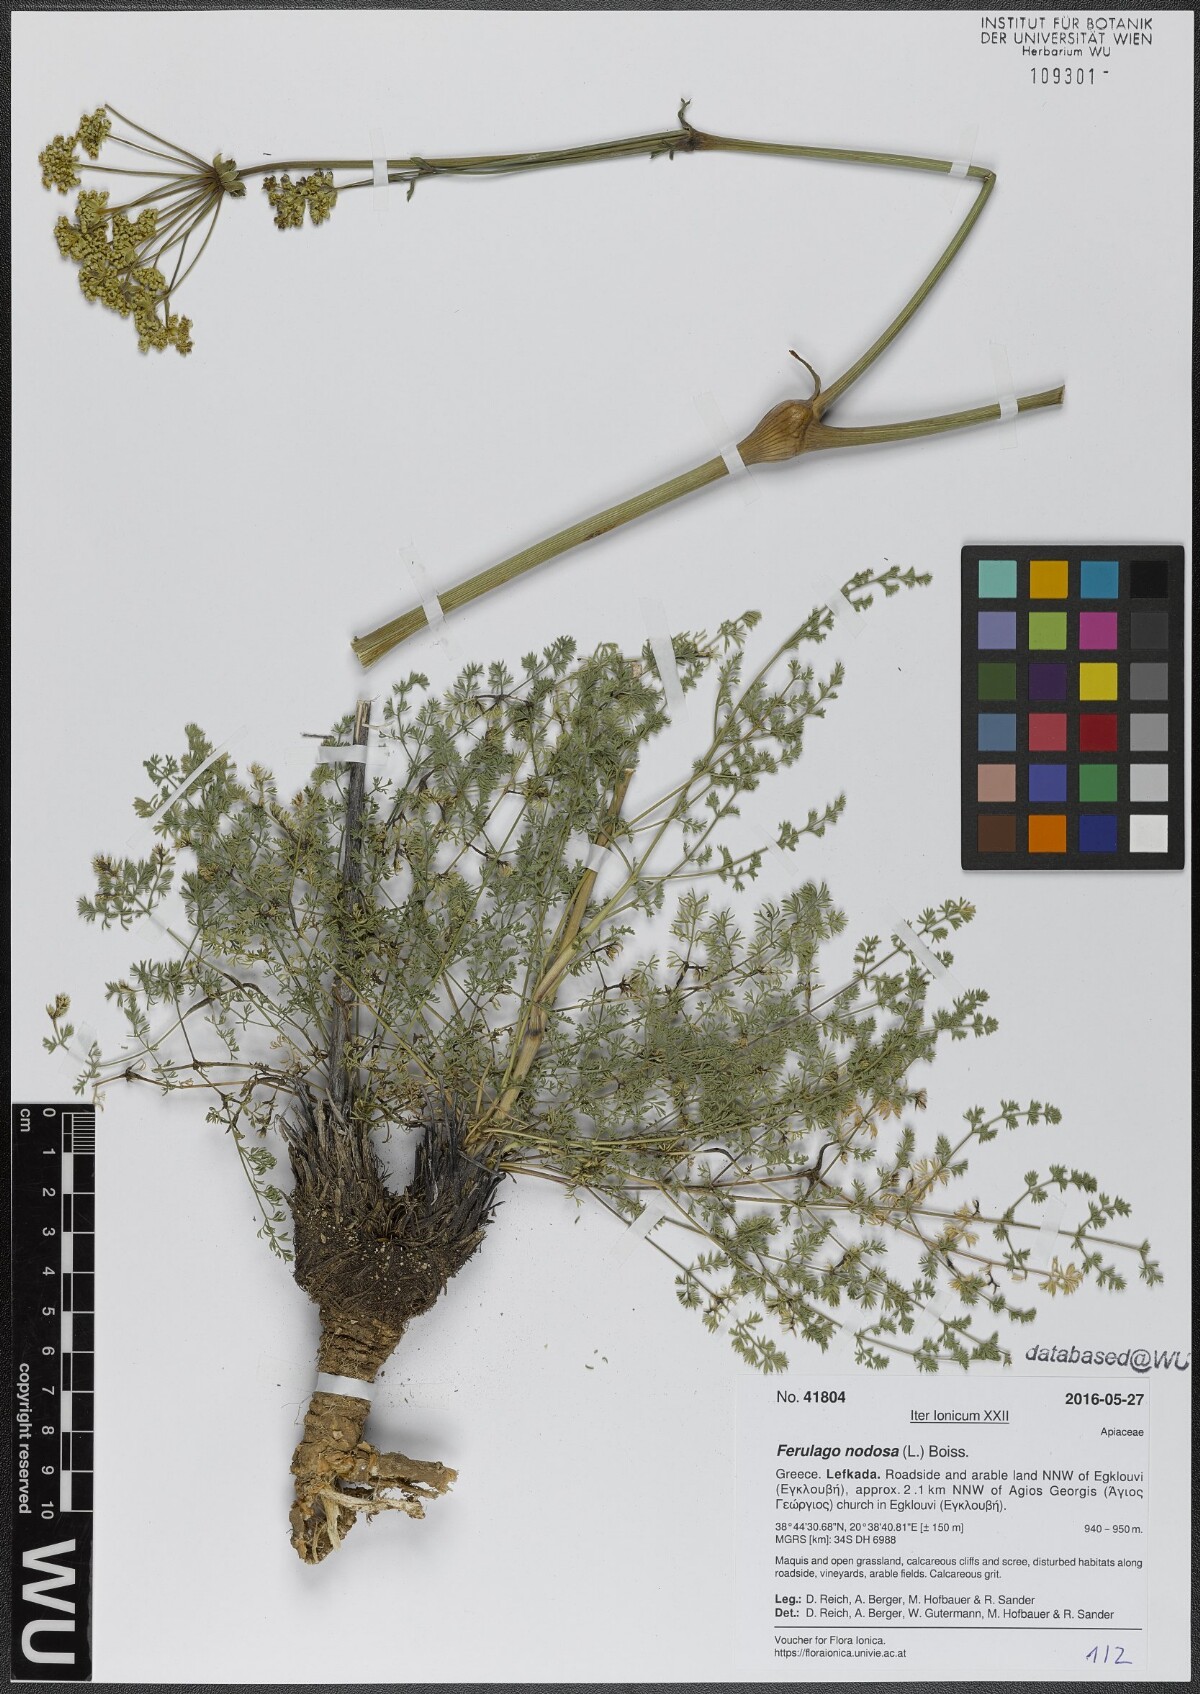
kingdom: Plantae
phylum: Tracheophyta
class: Magnoliopsida
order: Apiales
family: Apiaceae
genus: Ferulago
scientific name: Ferulago nodosa
